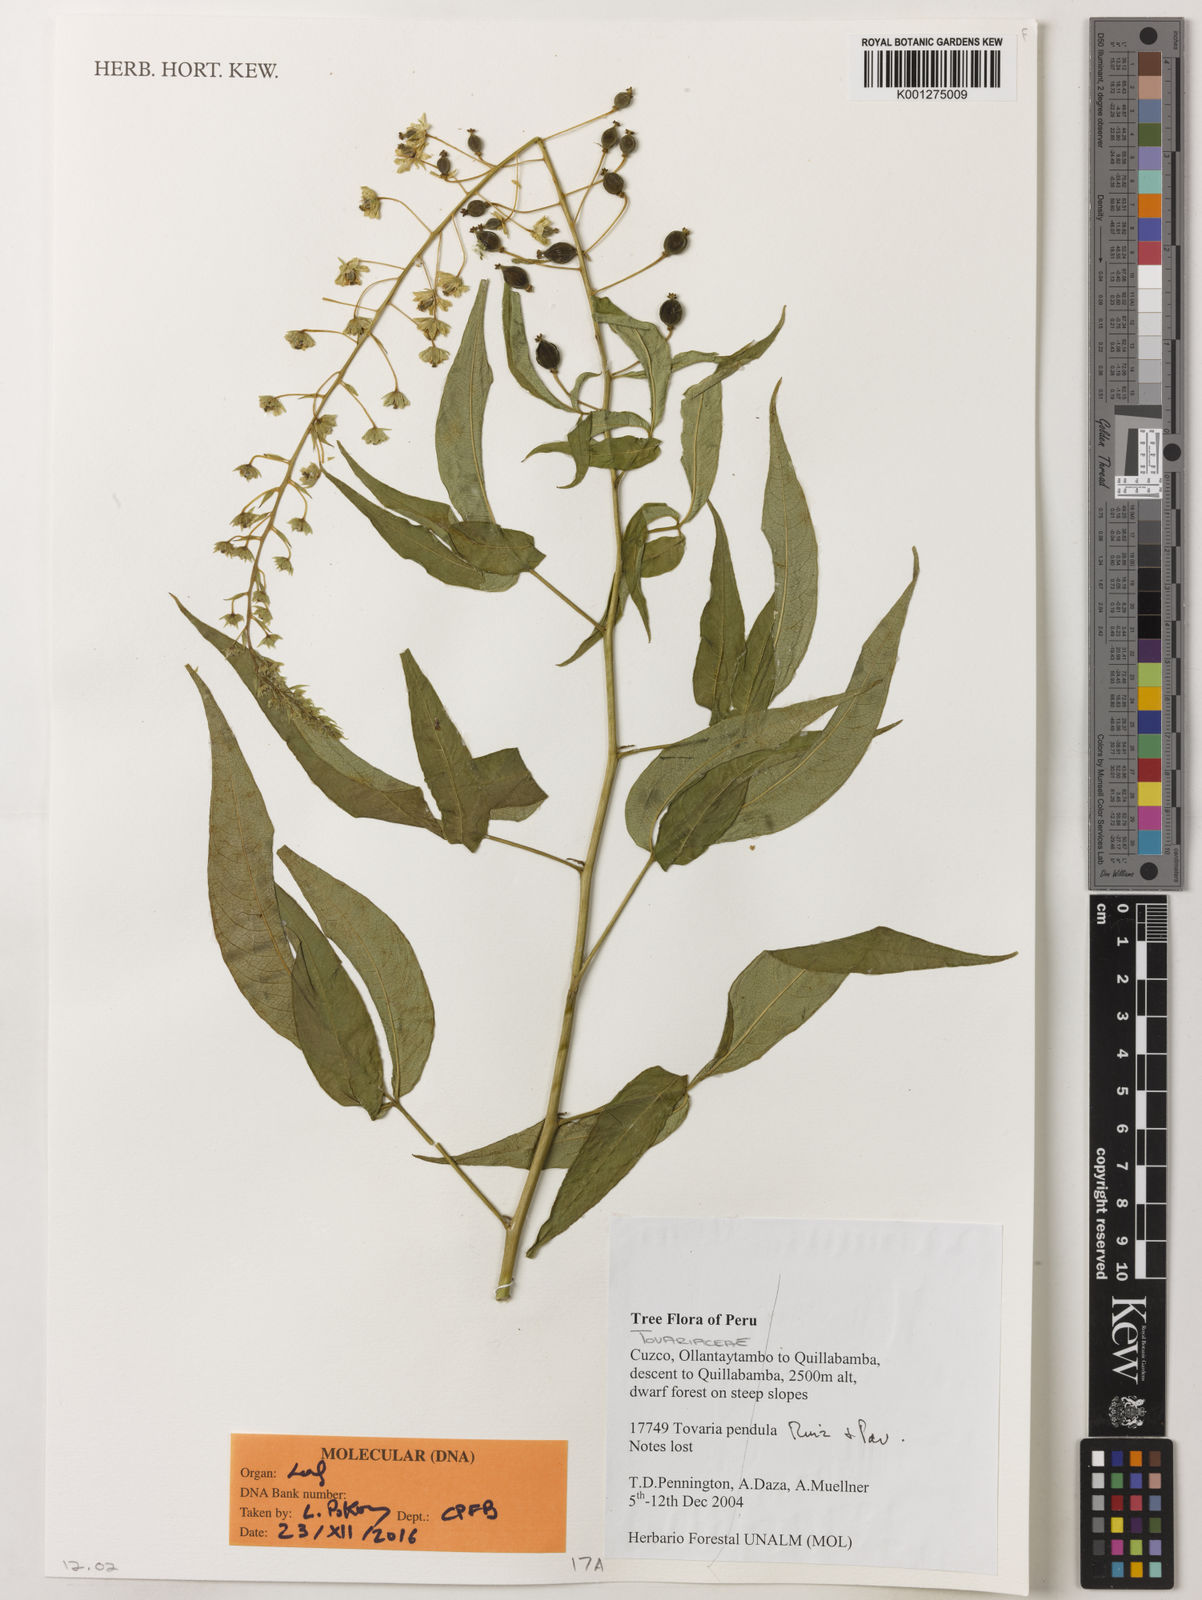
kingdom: Plantae
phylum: Tracheophyta
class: Magnoliopsida
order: Brassicales
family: Tovariaceae
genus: Tovaria
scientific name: Tovaria pendula
